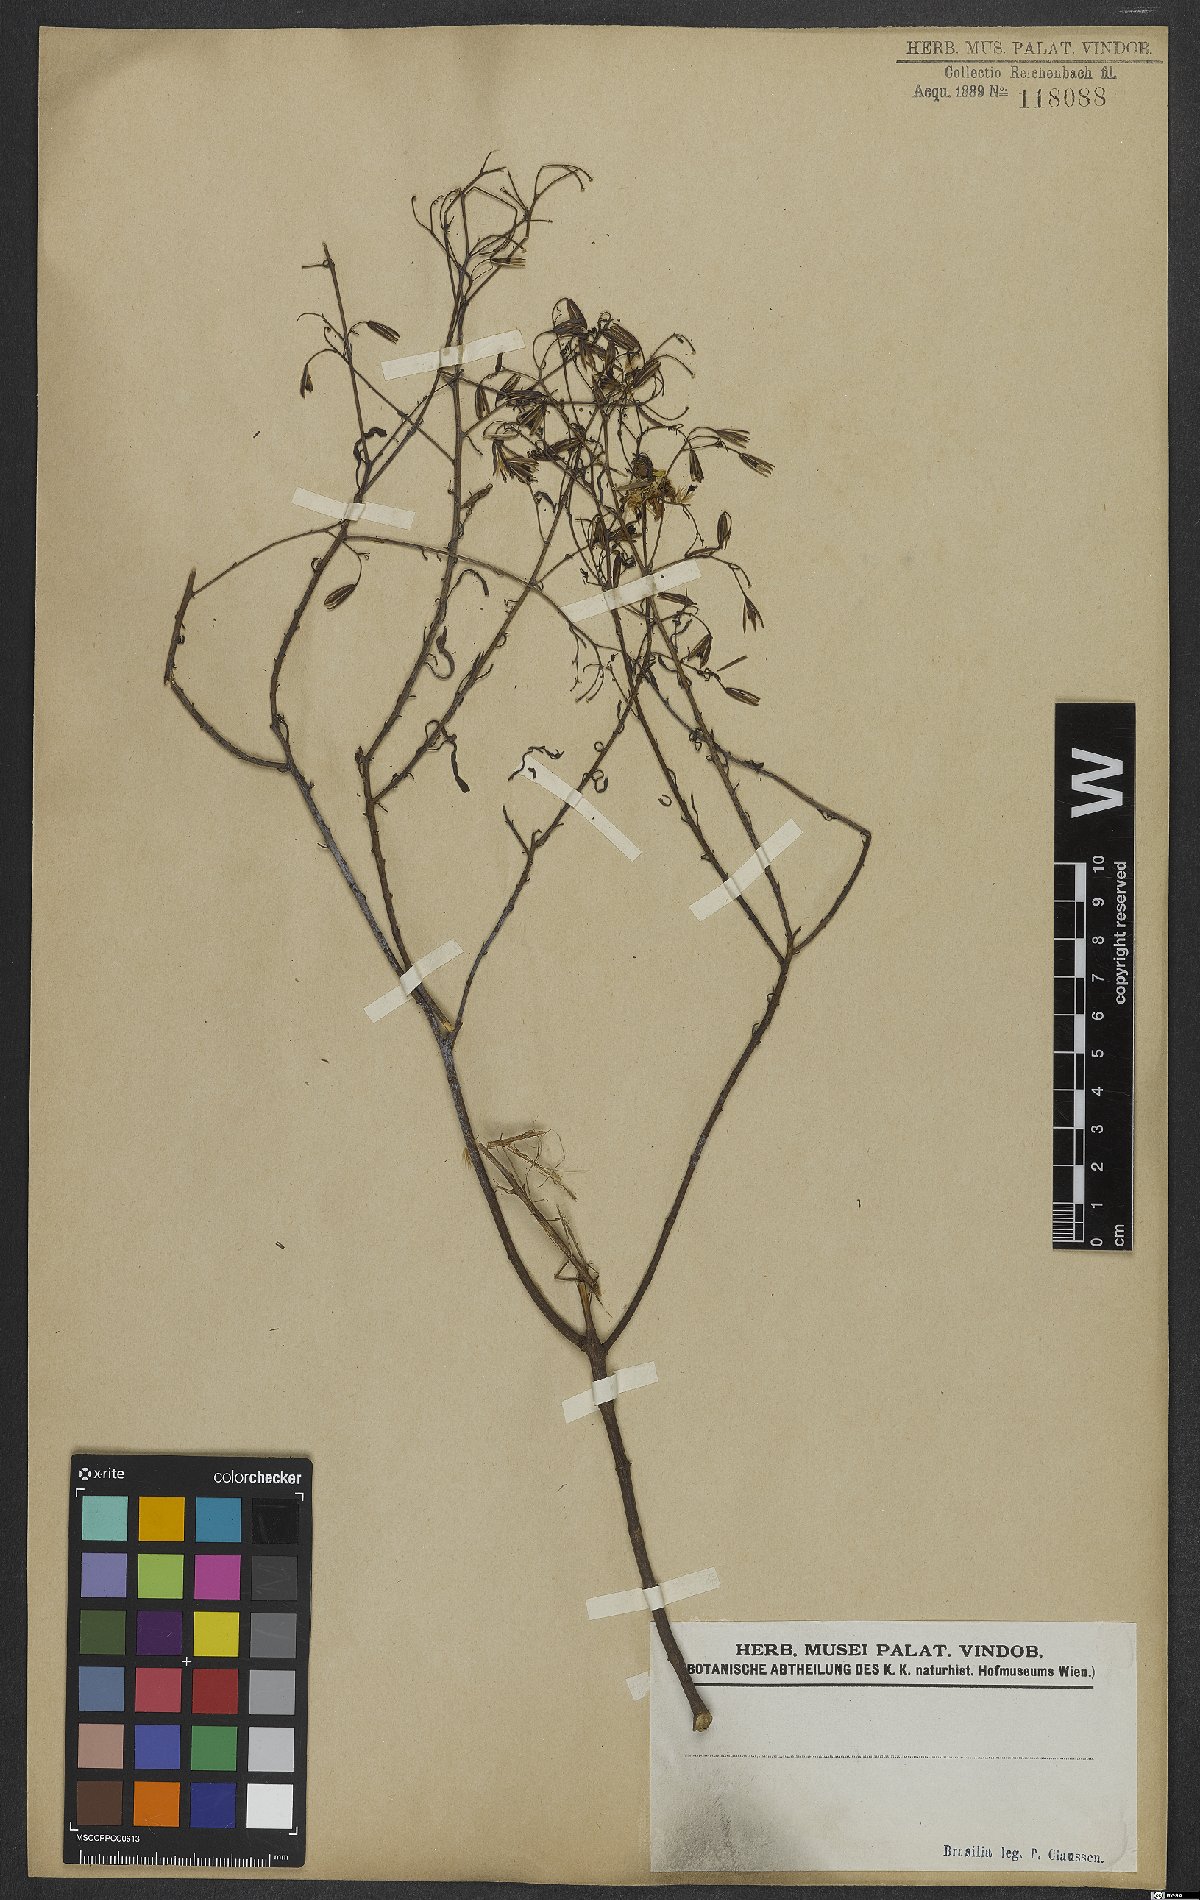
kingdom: Plantae
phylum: Tracheophyta
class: Magnoliopsida
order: Asterales
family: Asteraceae
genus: Porophyllum
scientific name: Porophyllum
